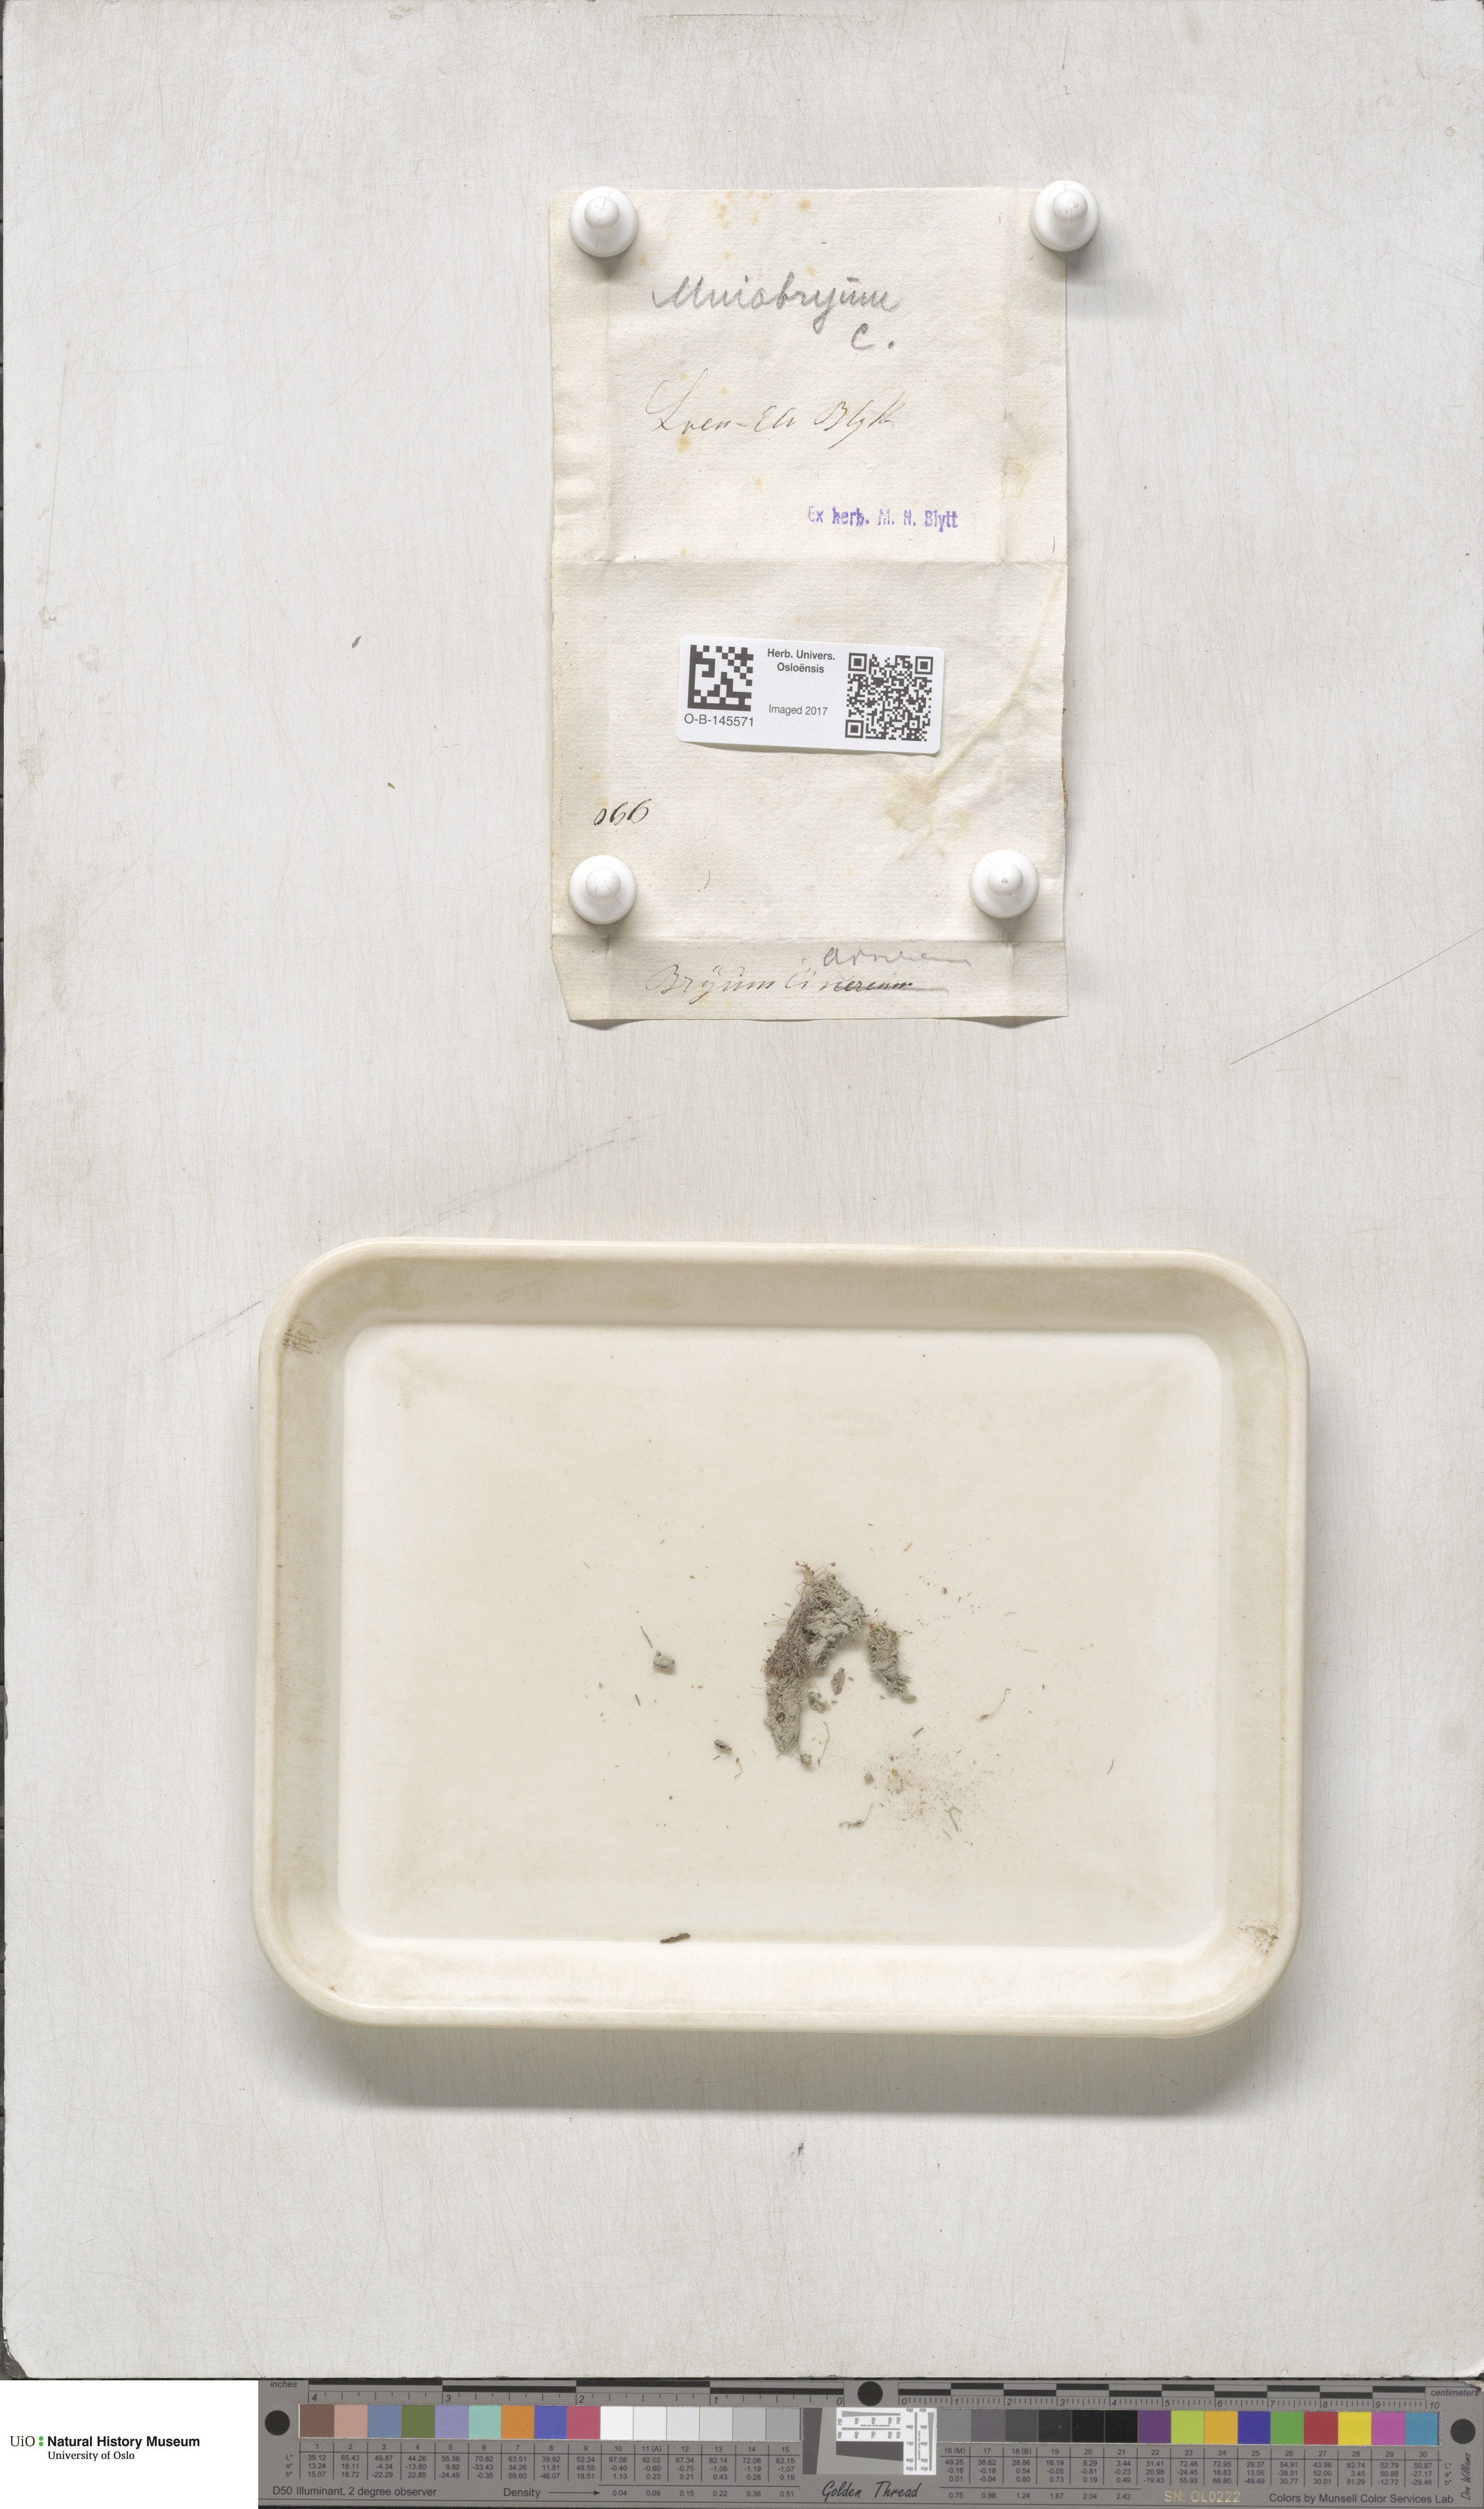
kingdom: Plantae
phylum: Bryophyta
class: Bryopsida
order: Bryales
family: Mniaceae
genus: Pohlia
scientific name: Pohlia melanodon
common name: Black-toothed nodding moss
